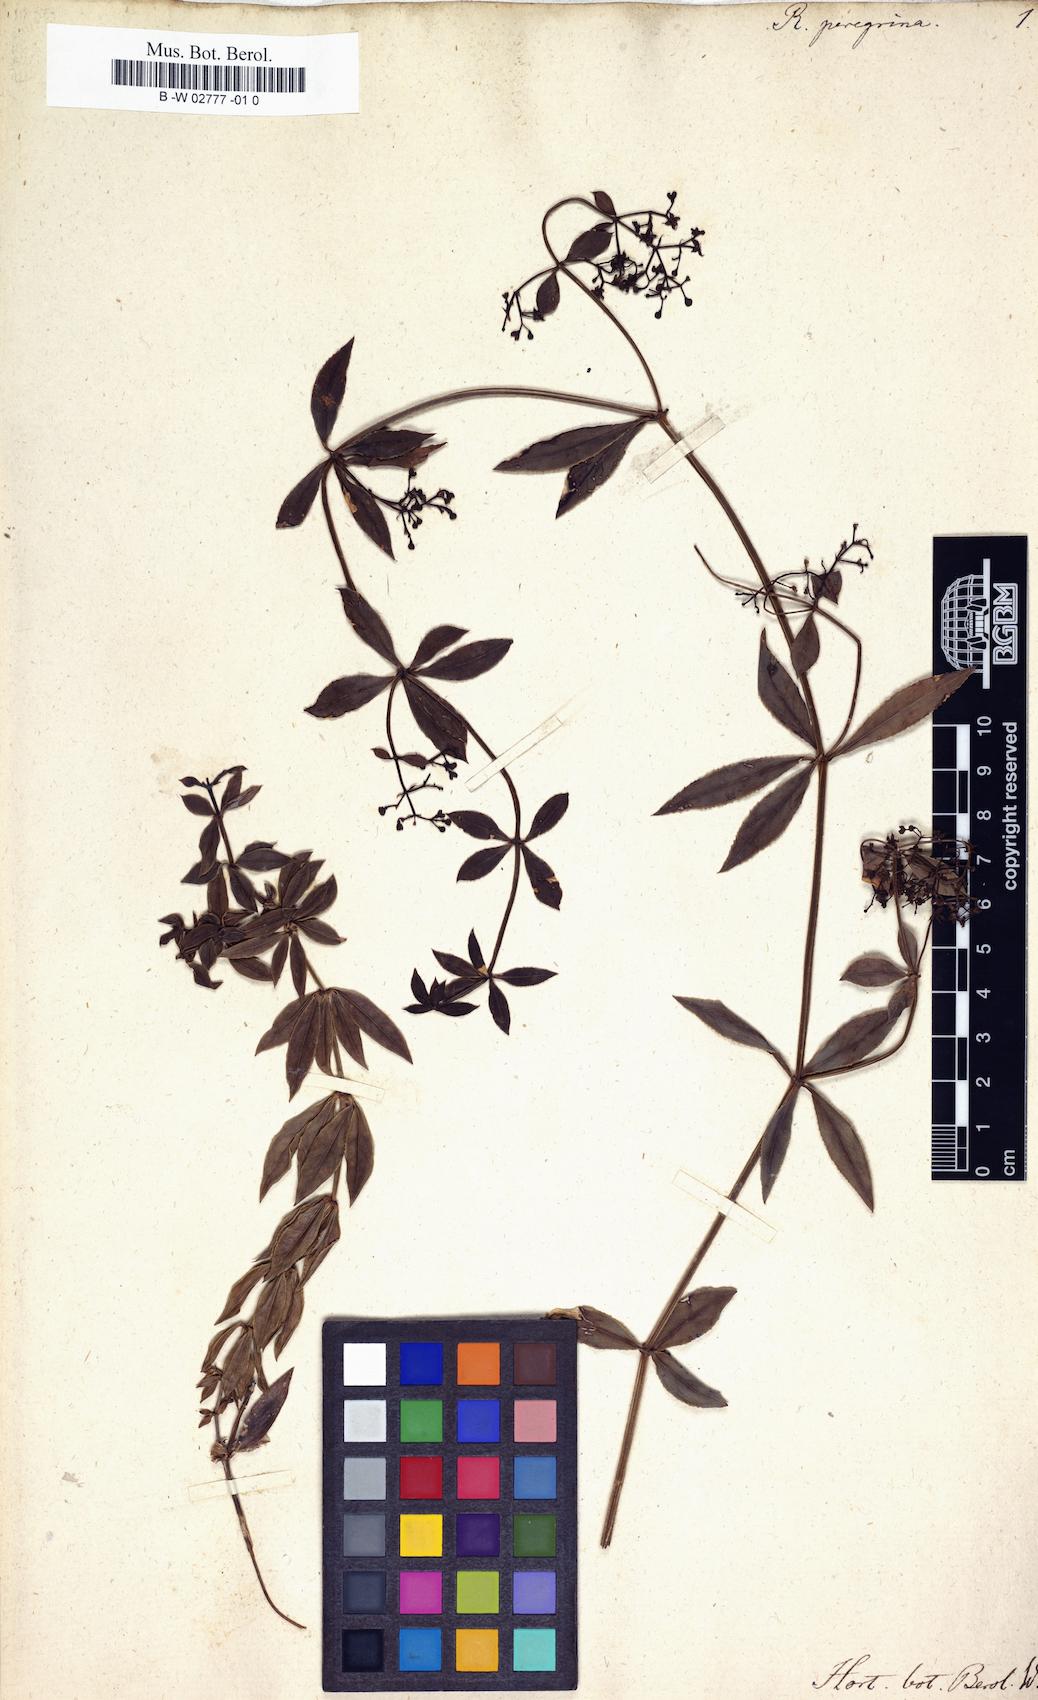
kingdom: Plantae
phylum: Tracheophyta
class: Magnoliopsida
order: Gentianales
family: Rubiaceae
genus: Rubia
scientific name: Rubia peregrina
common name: Wild madder
